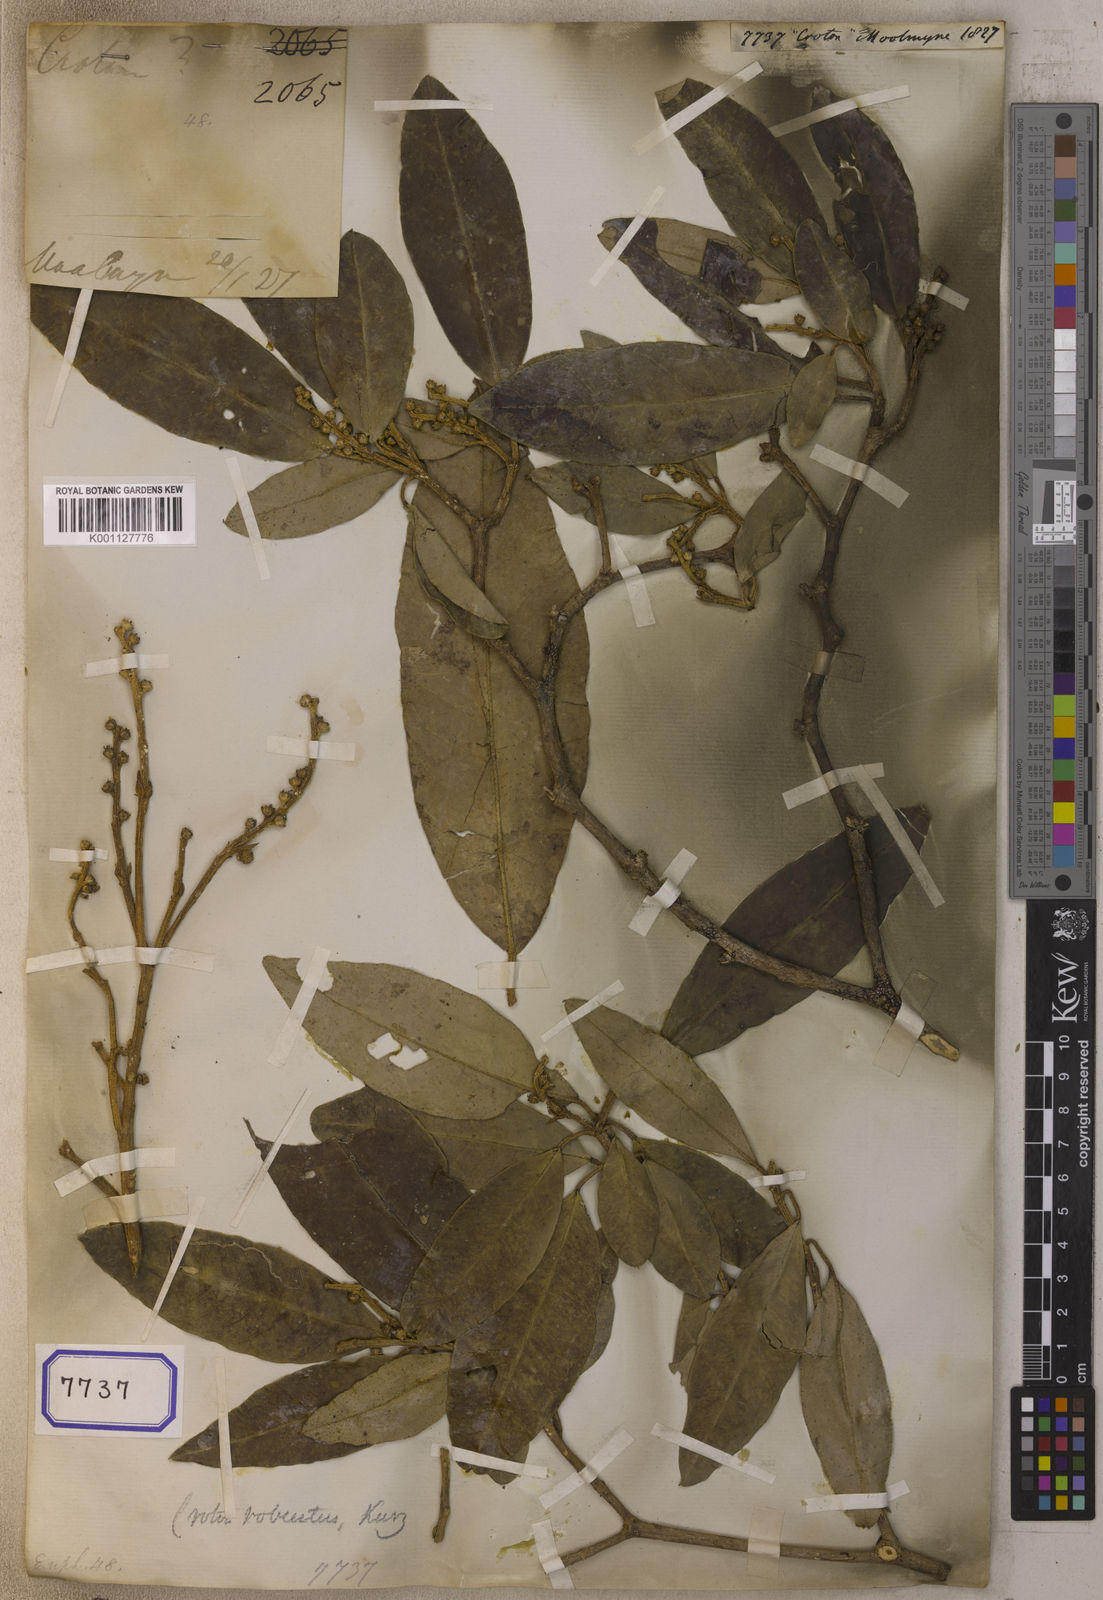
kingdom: Plantae
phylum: Tracheophyta
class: Magnoliopsida
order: Malpighiales
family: Euphorbiaceae
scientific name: Euphorbiaceae
